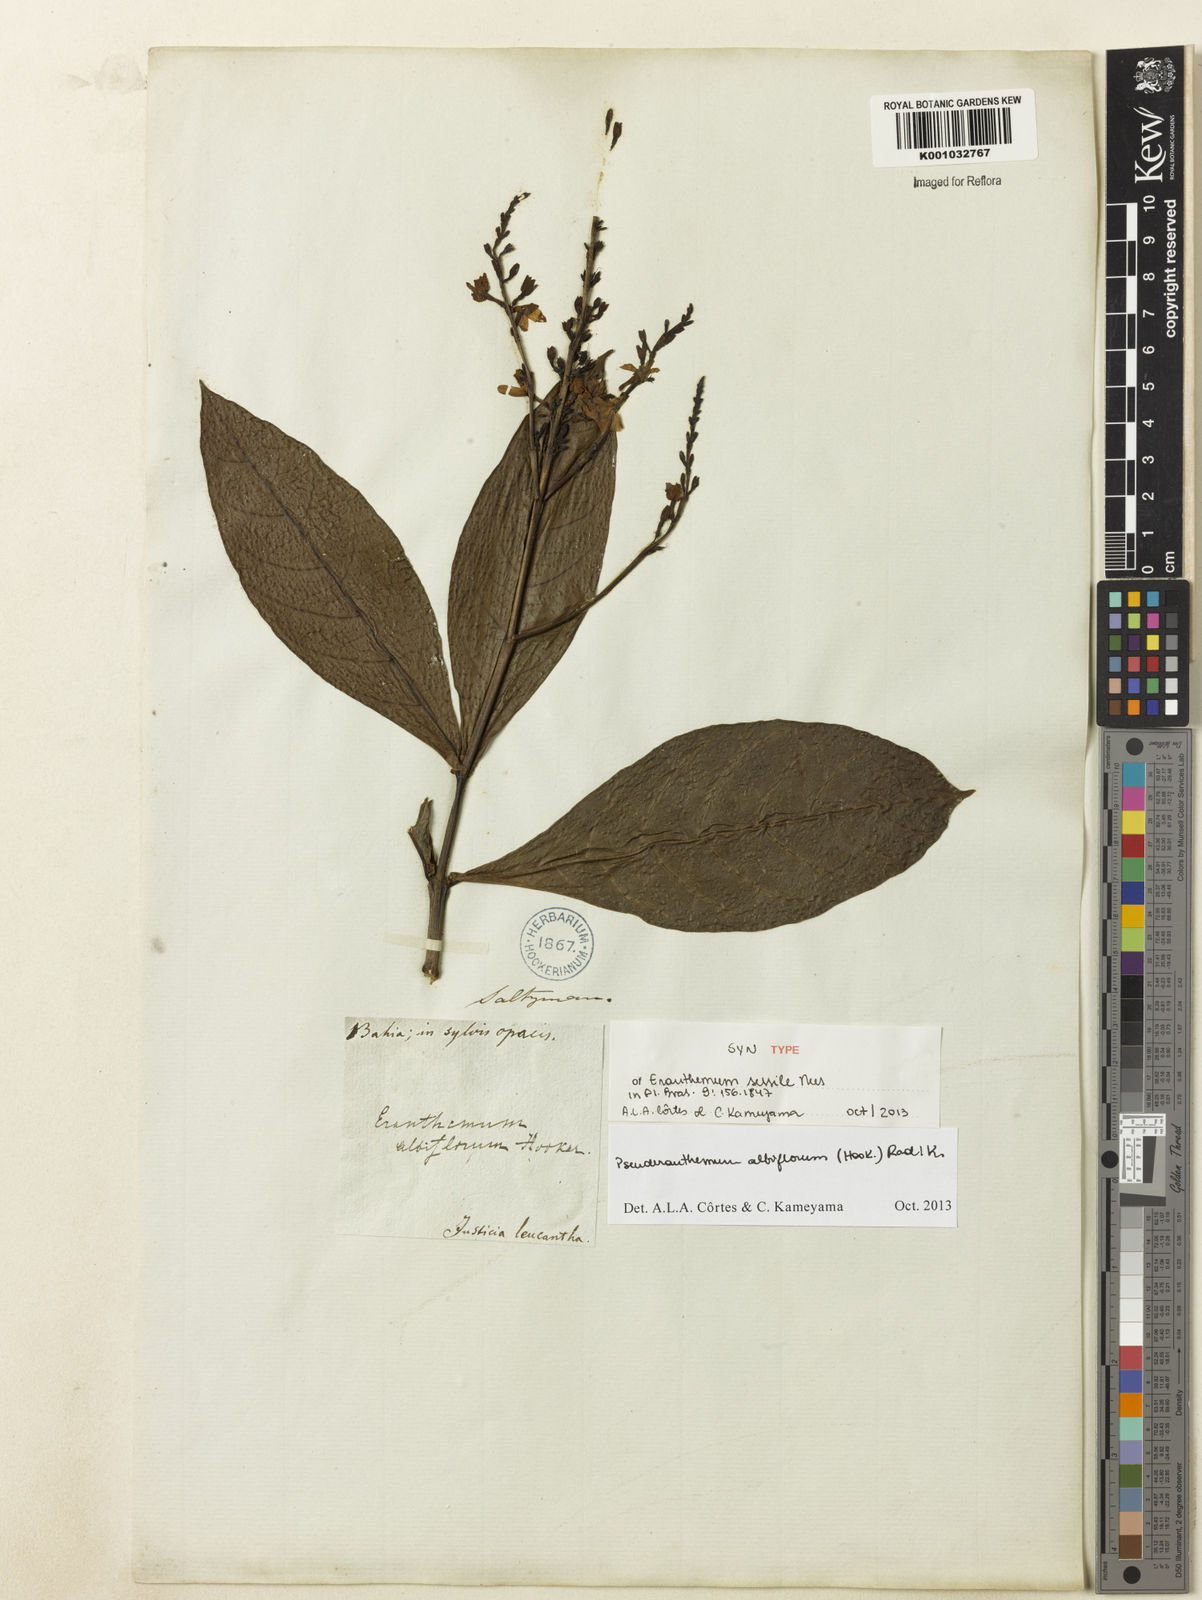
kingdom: Plantae
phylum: Tracheophyta
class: Magnoliopsida
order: Lamiales
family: Acanthaceae
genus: Pseuderanthemum
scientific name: Pseuderanthemum albiflorum
